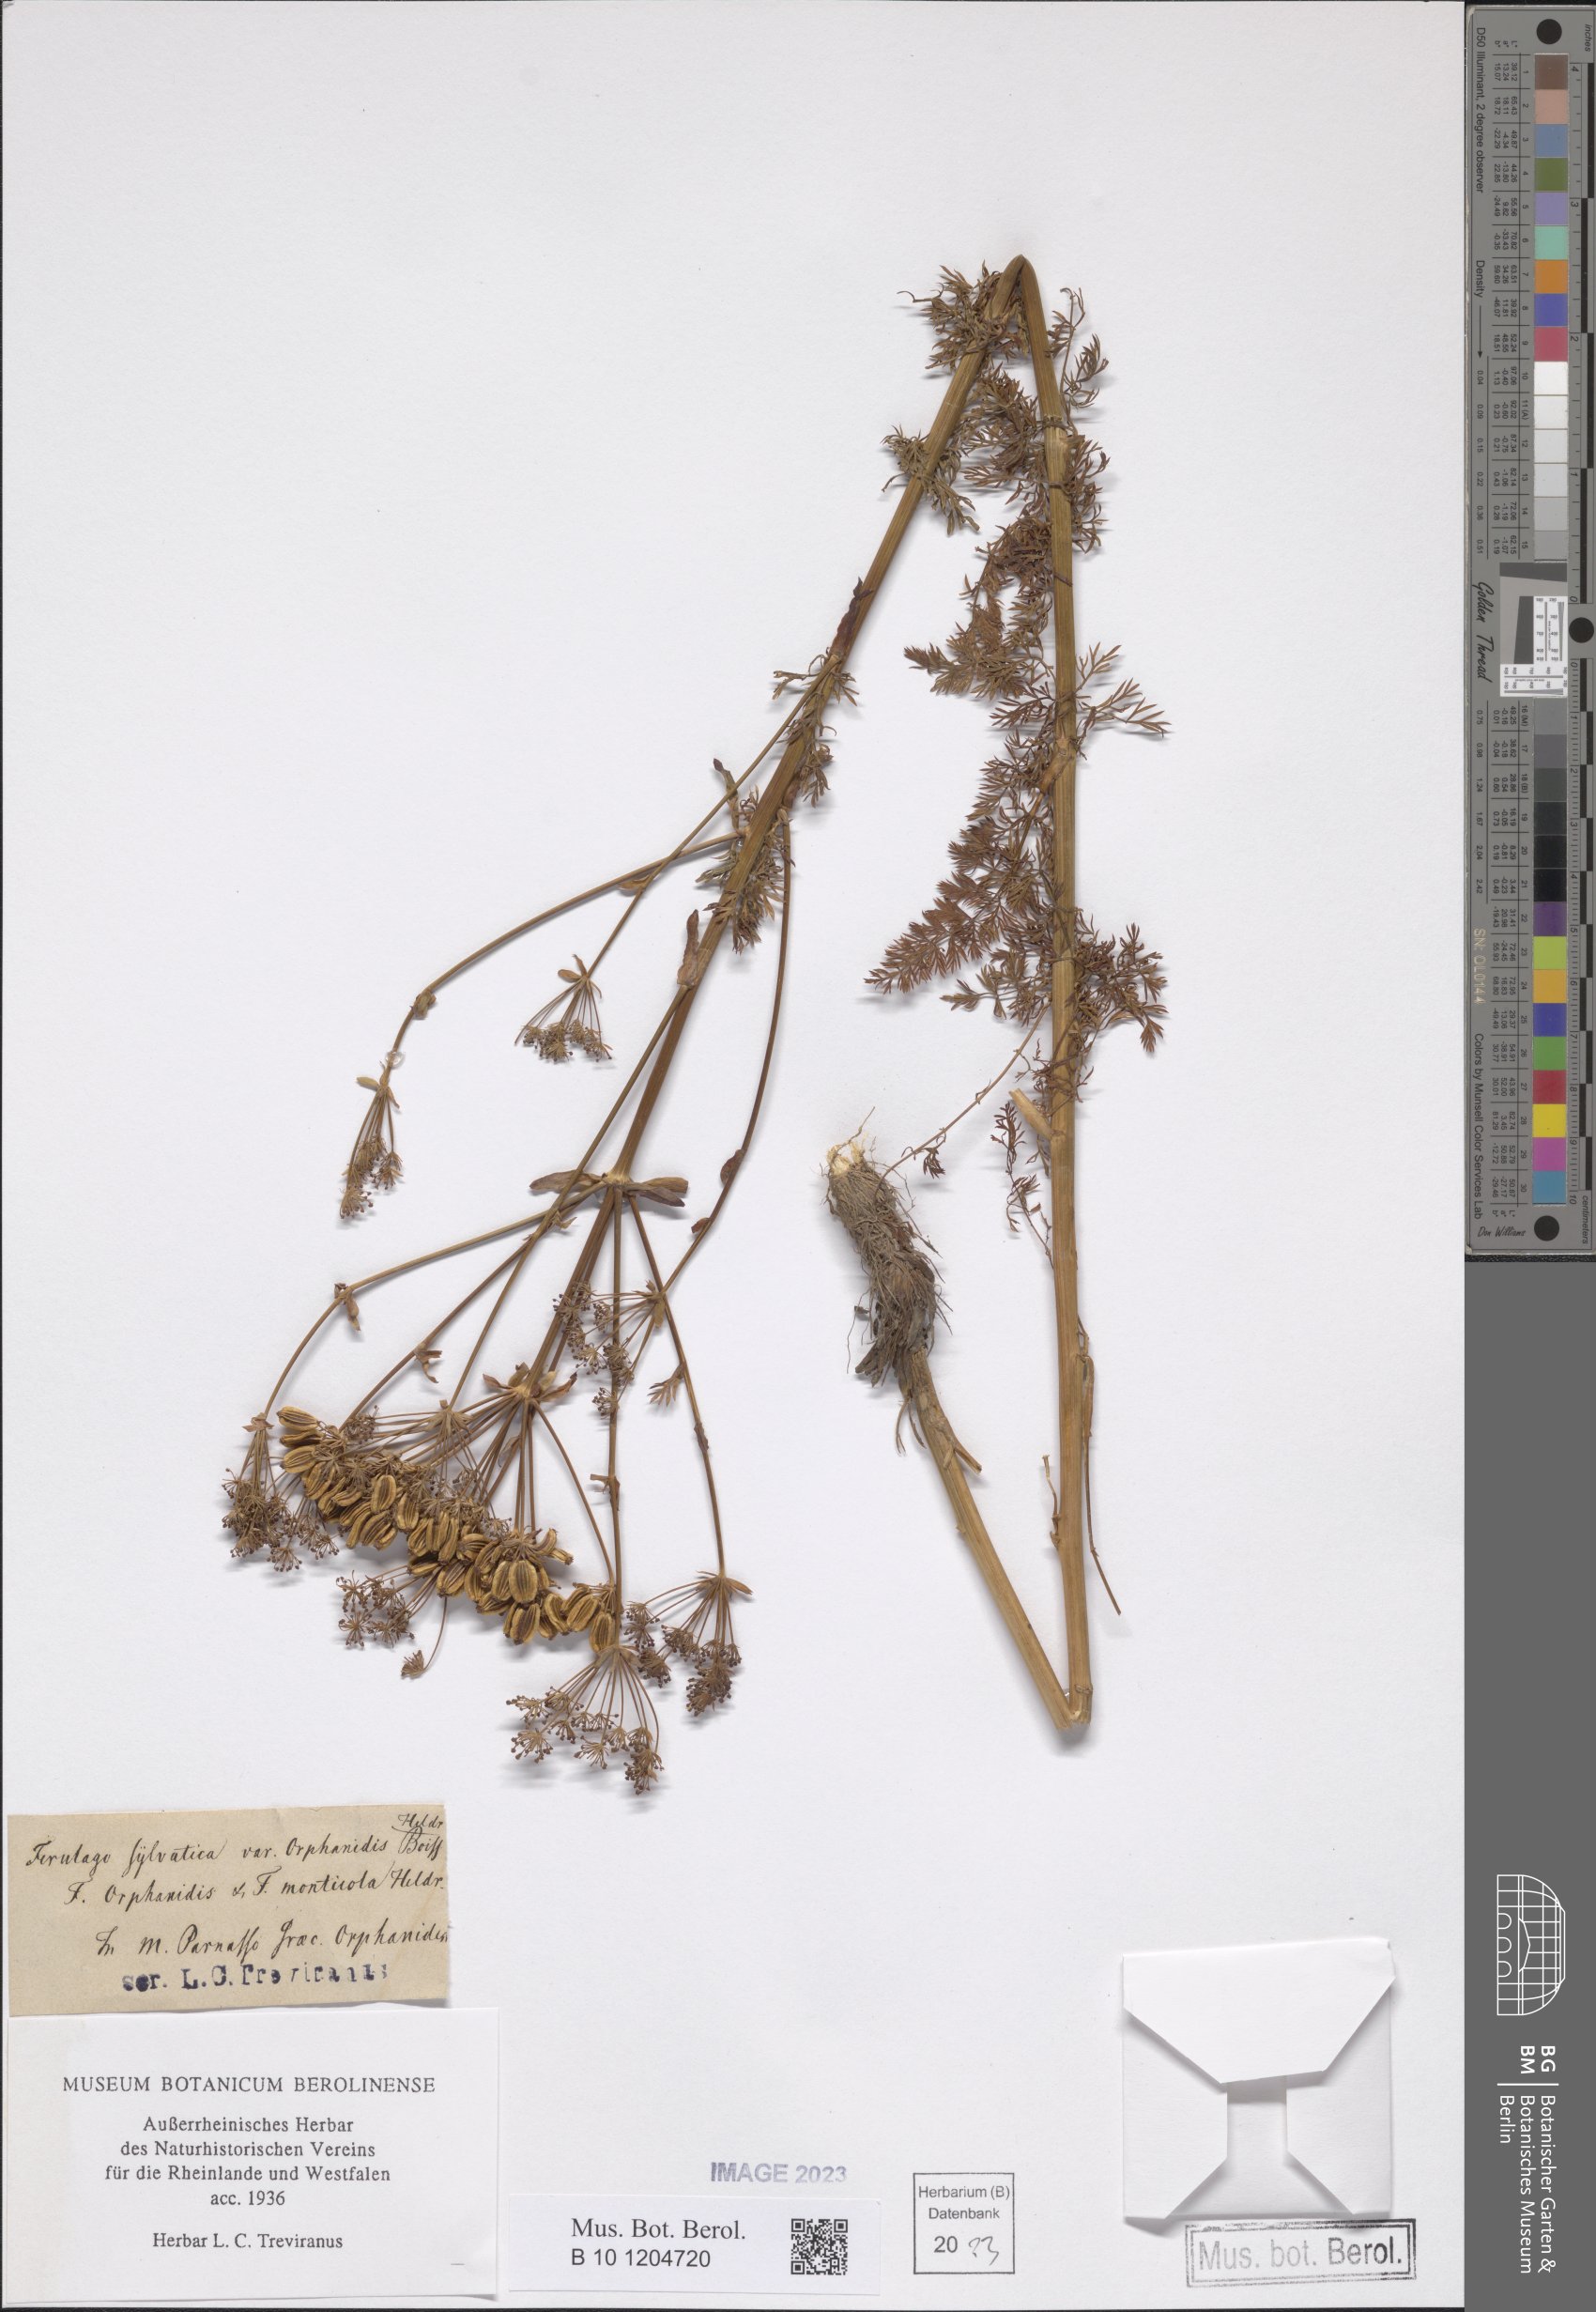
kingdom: Plantae
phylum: Tracheophyta
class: Magnoliopsida
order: Apiales
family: Apiaceae
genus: Ferulago
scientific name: Ferulago sylvatica
